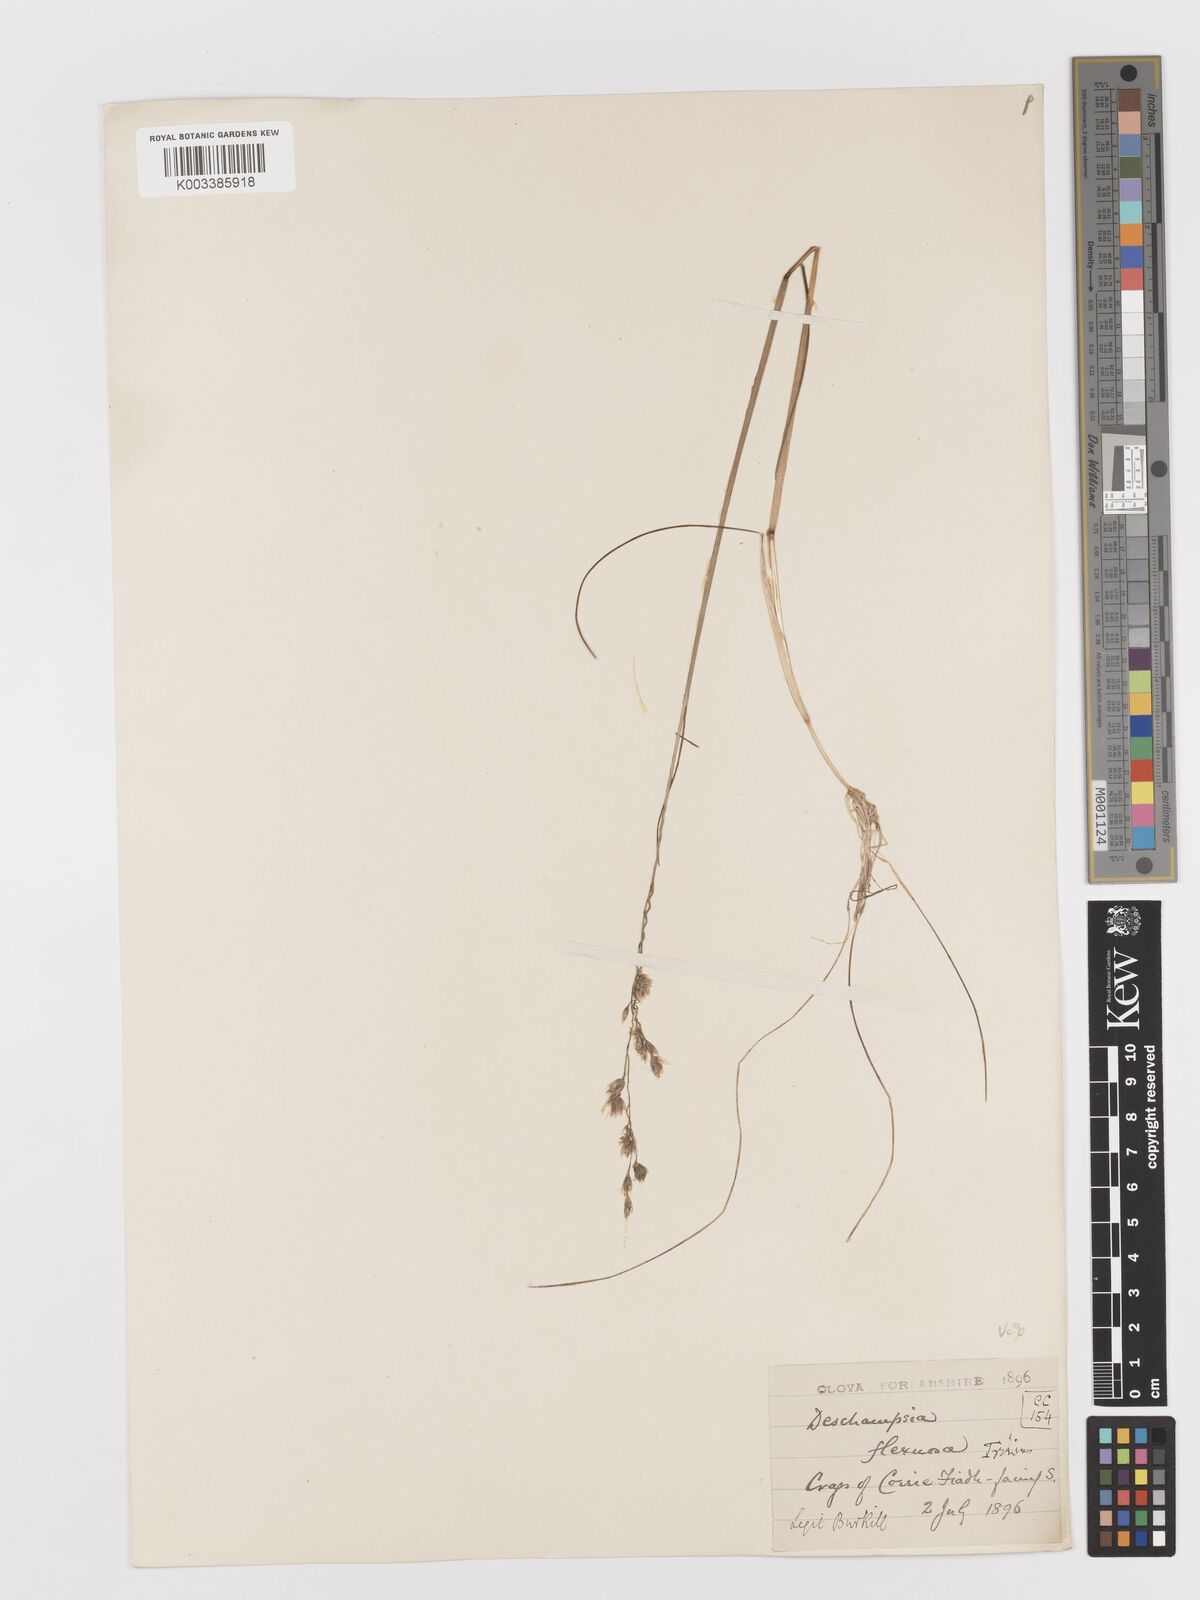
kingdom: Plantae
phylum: Tracheophyta
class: Liliopsida
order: Poales
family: Poaceae
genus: Avenella
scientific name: Avenella flexuosa
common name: Wavy hairgrass
